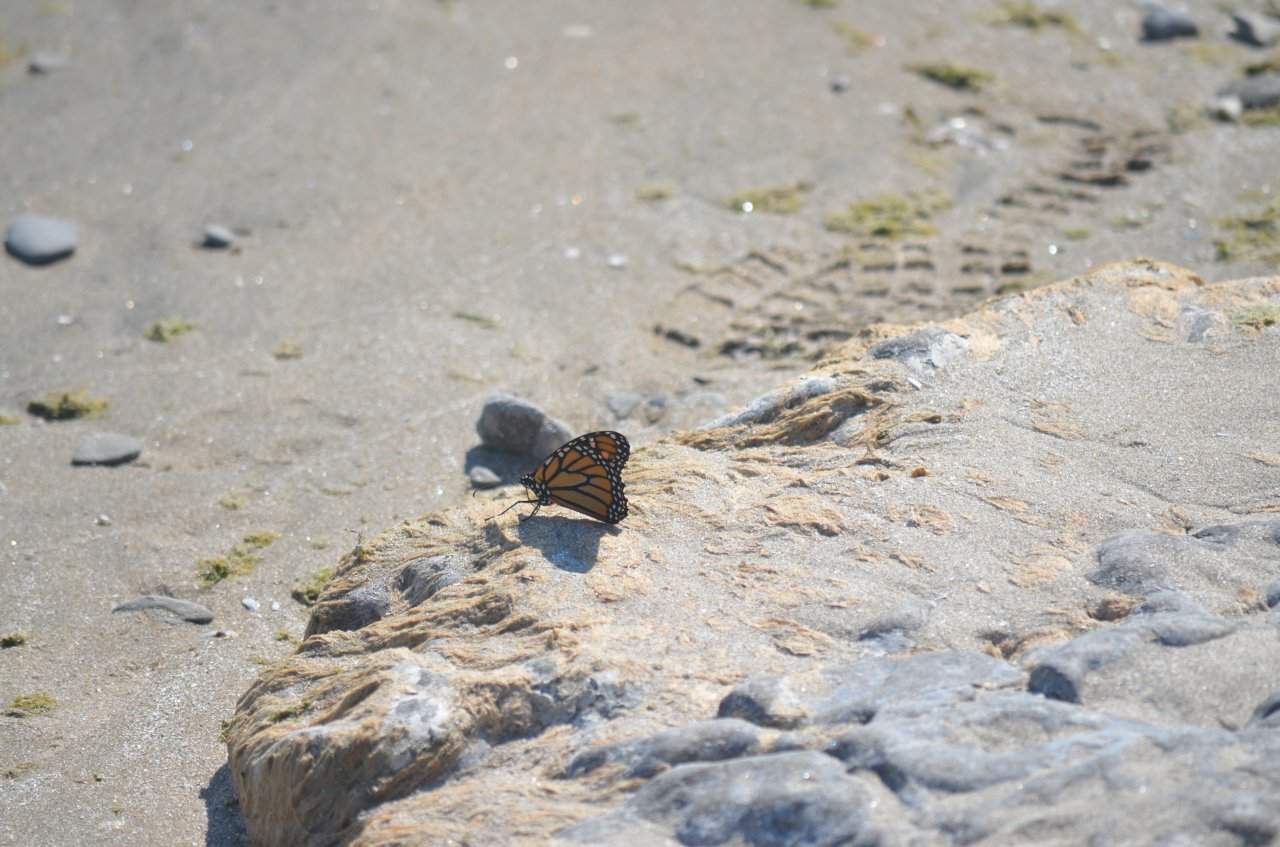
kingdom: Animalia
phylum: Arthropoda
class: Insecta
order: Lepidoptera
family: Nymphalidae
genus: Danaus
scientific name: Danaus plexippus
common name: Monarch
